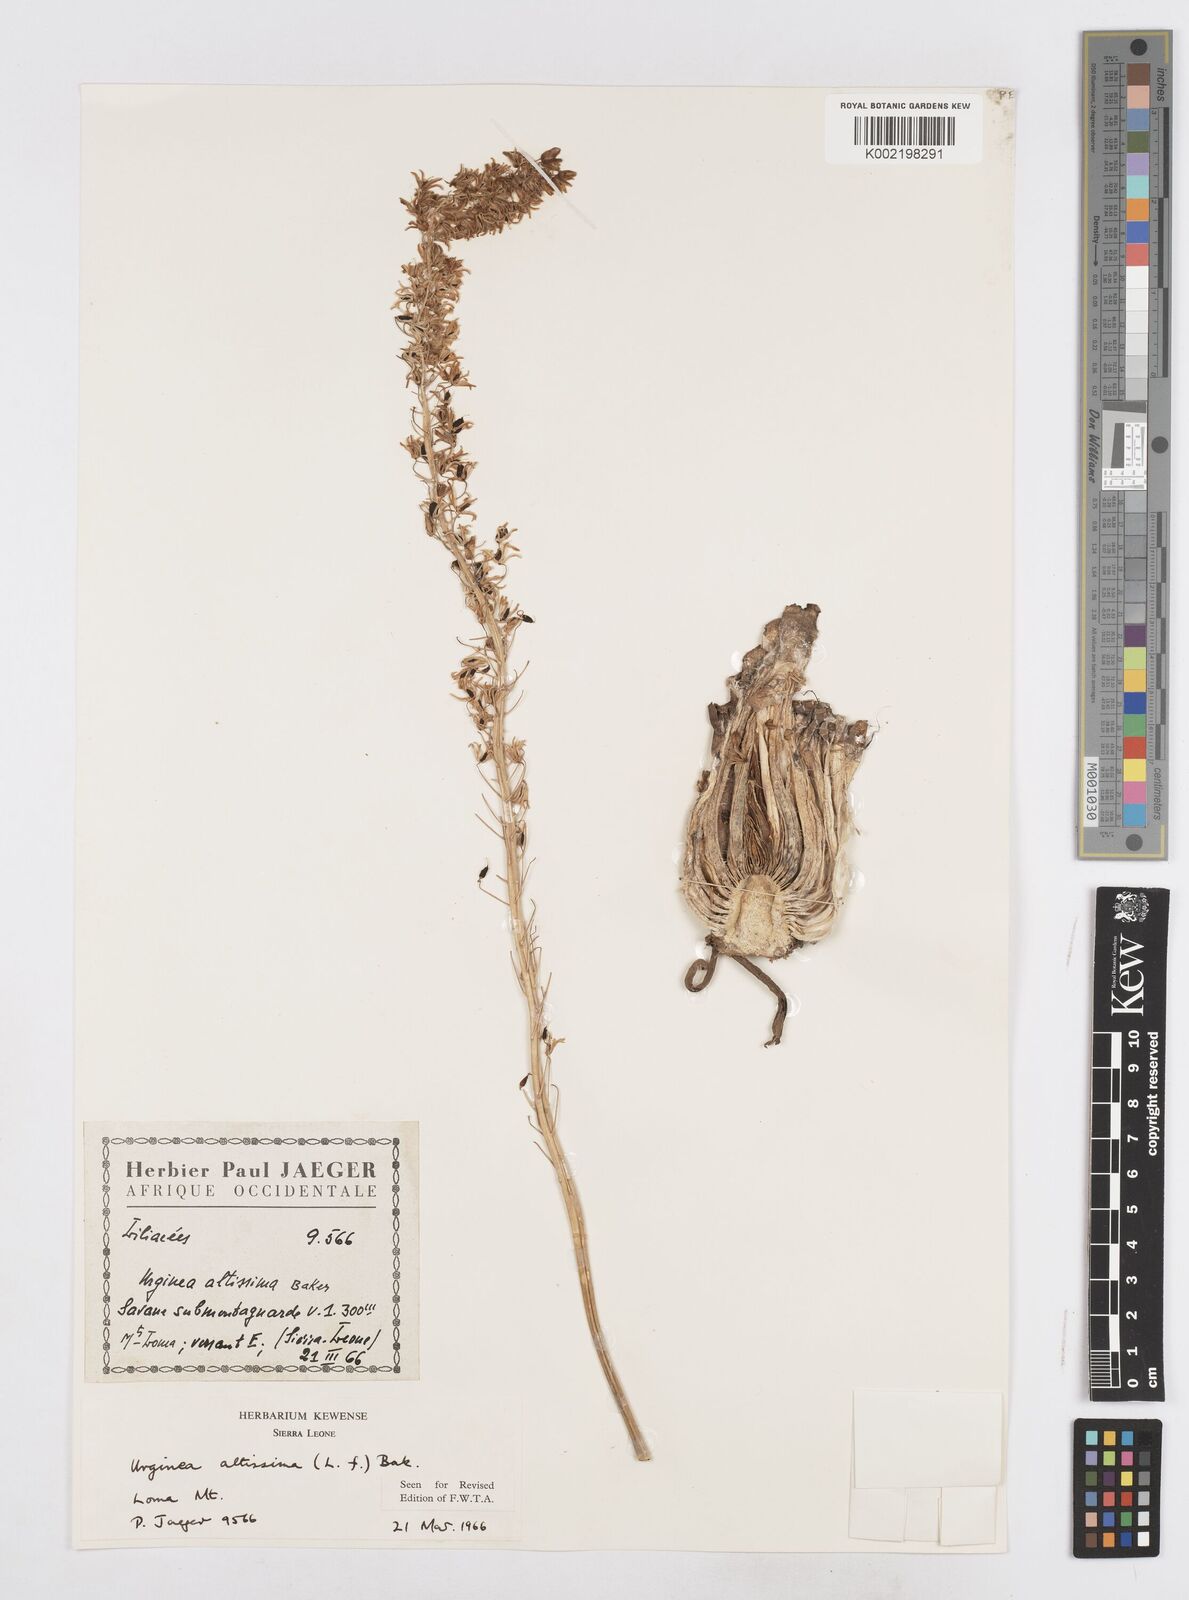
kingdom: Plantae
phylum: Tracheophyta
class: Liliopsida
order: Asparagales
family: Asparagaceae
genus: Drimia
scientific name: Drimia altissima
